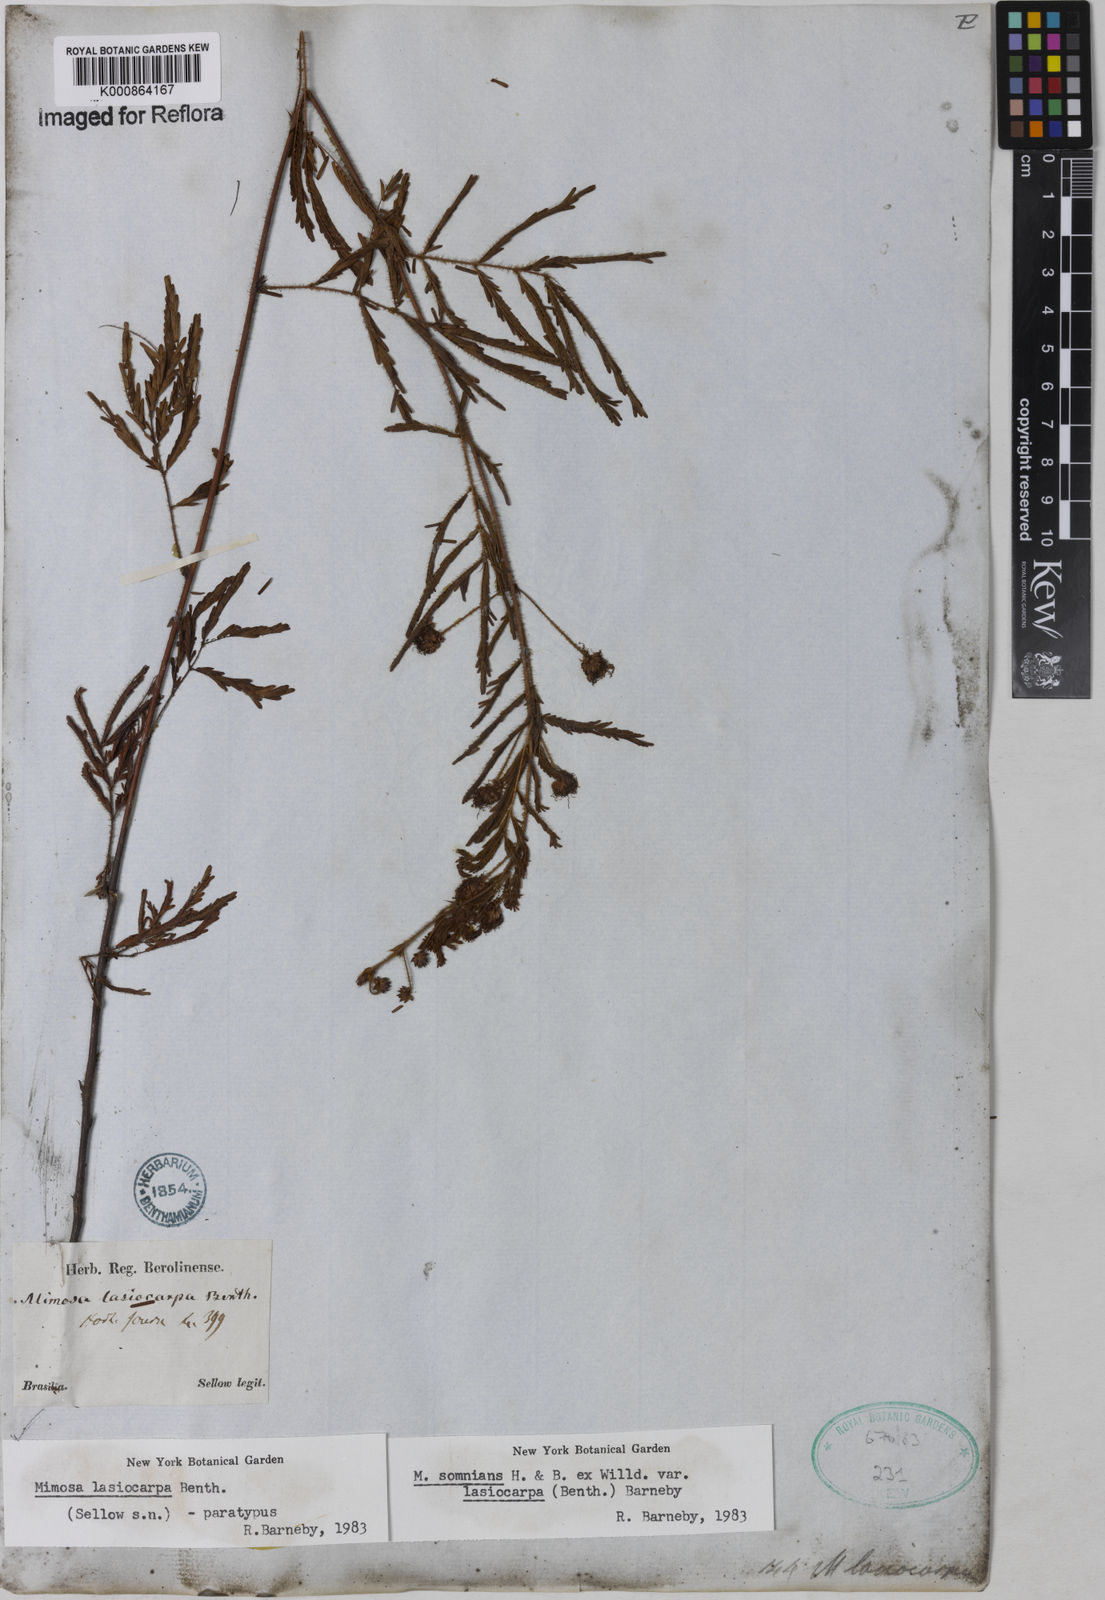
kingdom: Plantae
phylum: Tracheophyta
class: Magnoliopsida
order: Fabales
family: Fabaceae
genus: Mimosa
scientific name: Mimosa somnians
